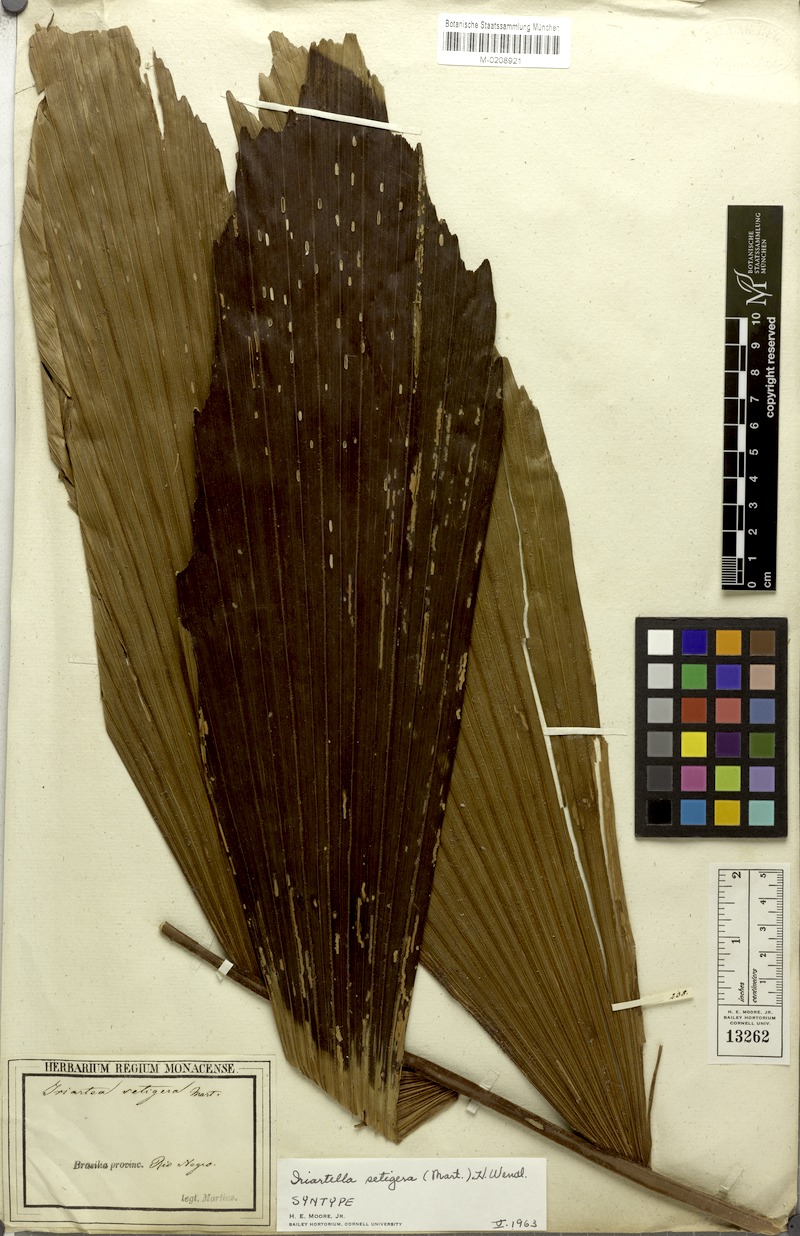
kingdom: Plantae
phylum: Tracheophyta
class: Liliopsida
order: Arecales
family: Arecaceae
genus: Iriartella
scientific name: Iriartella setigera
